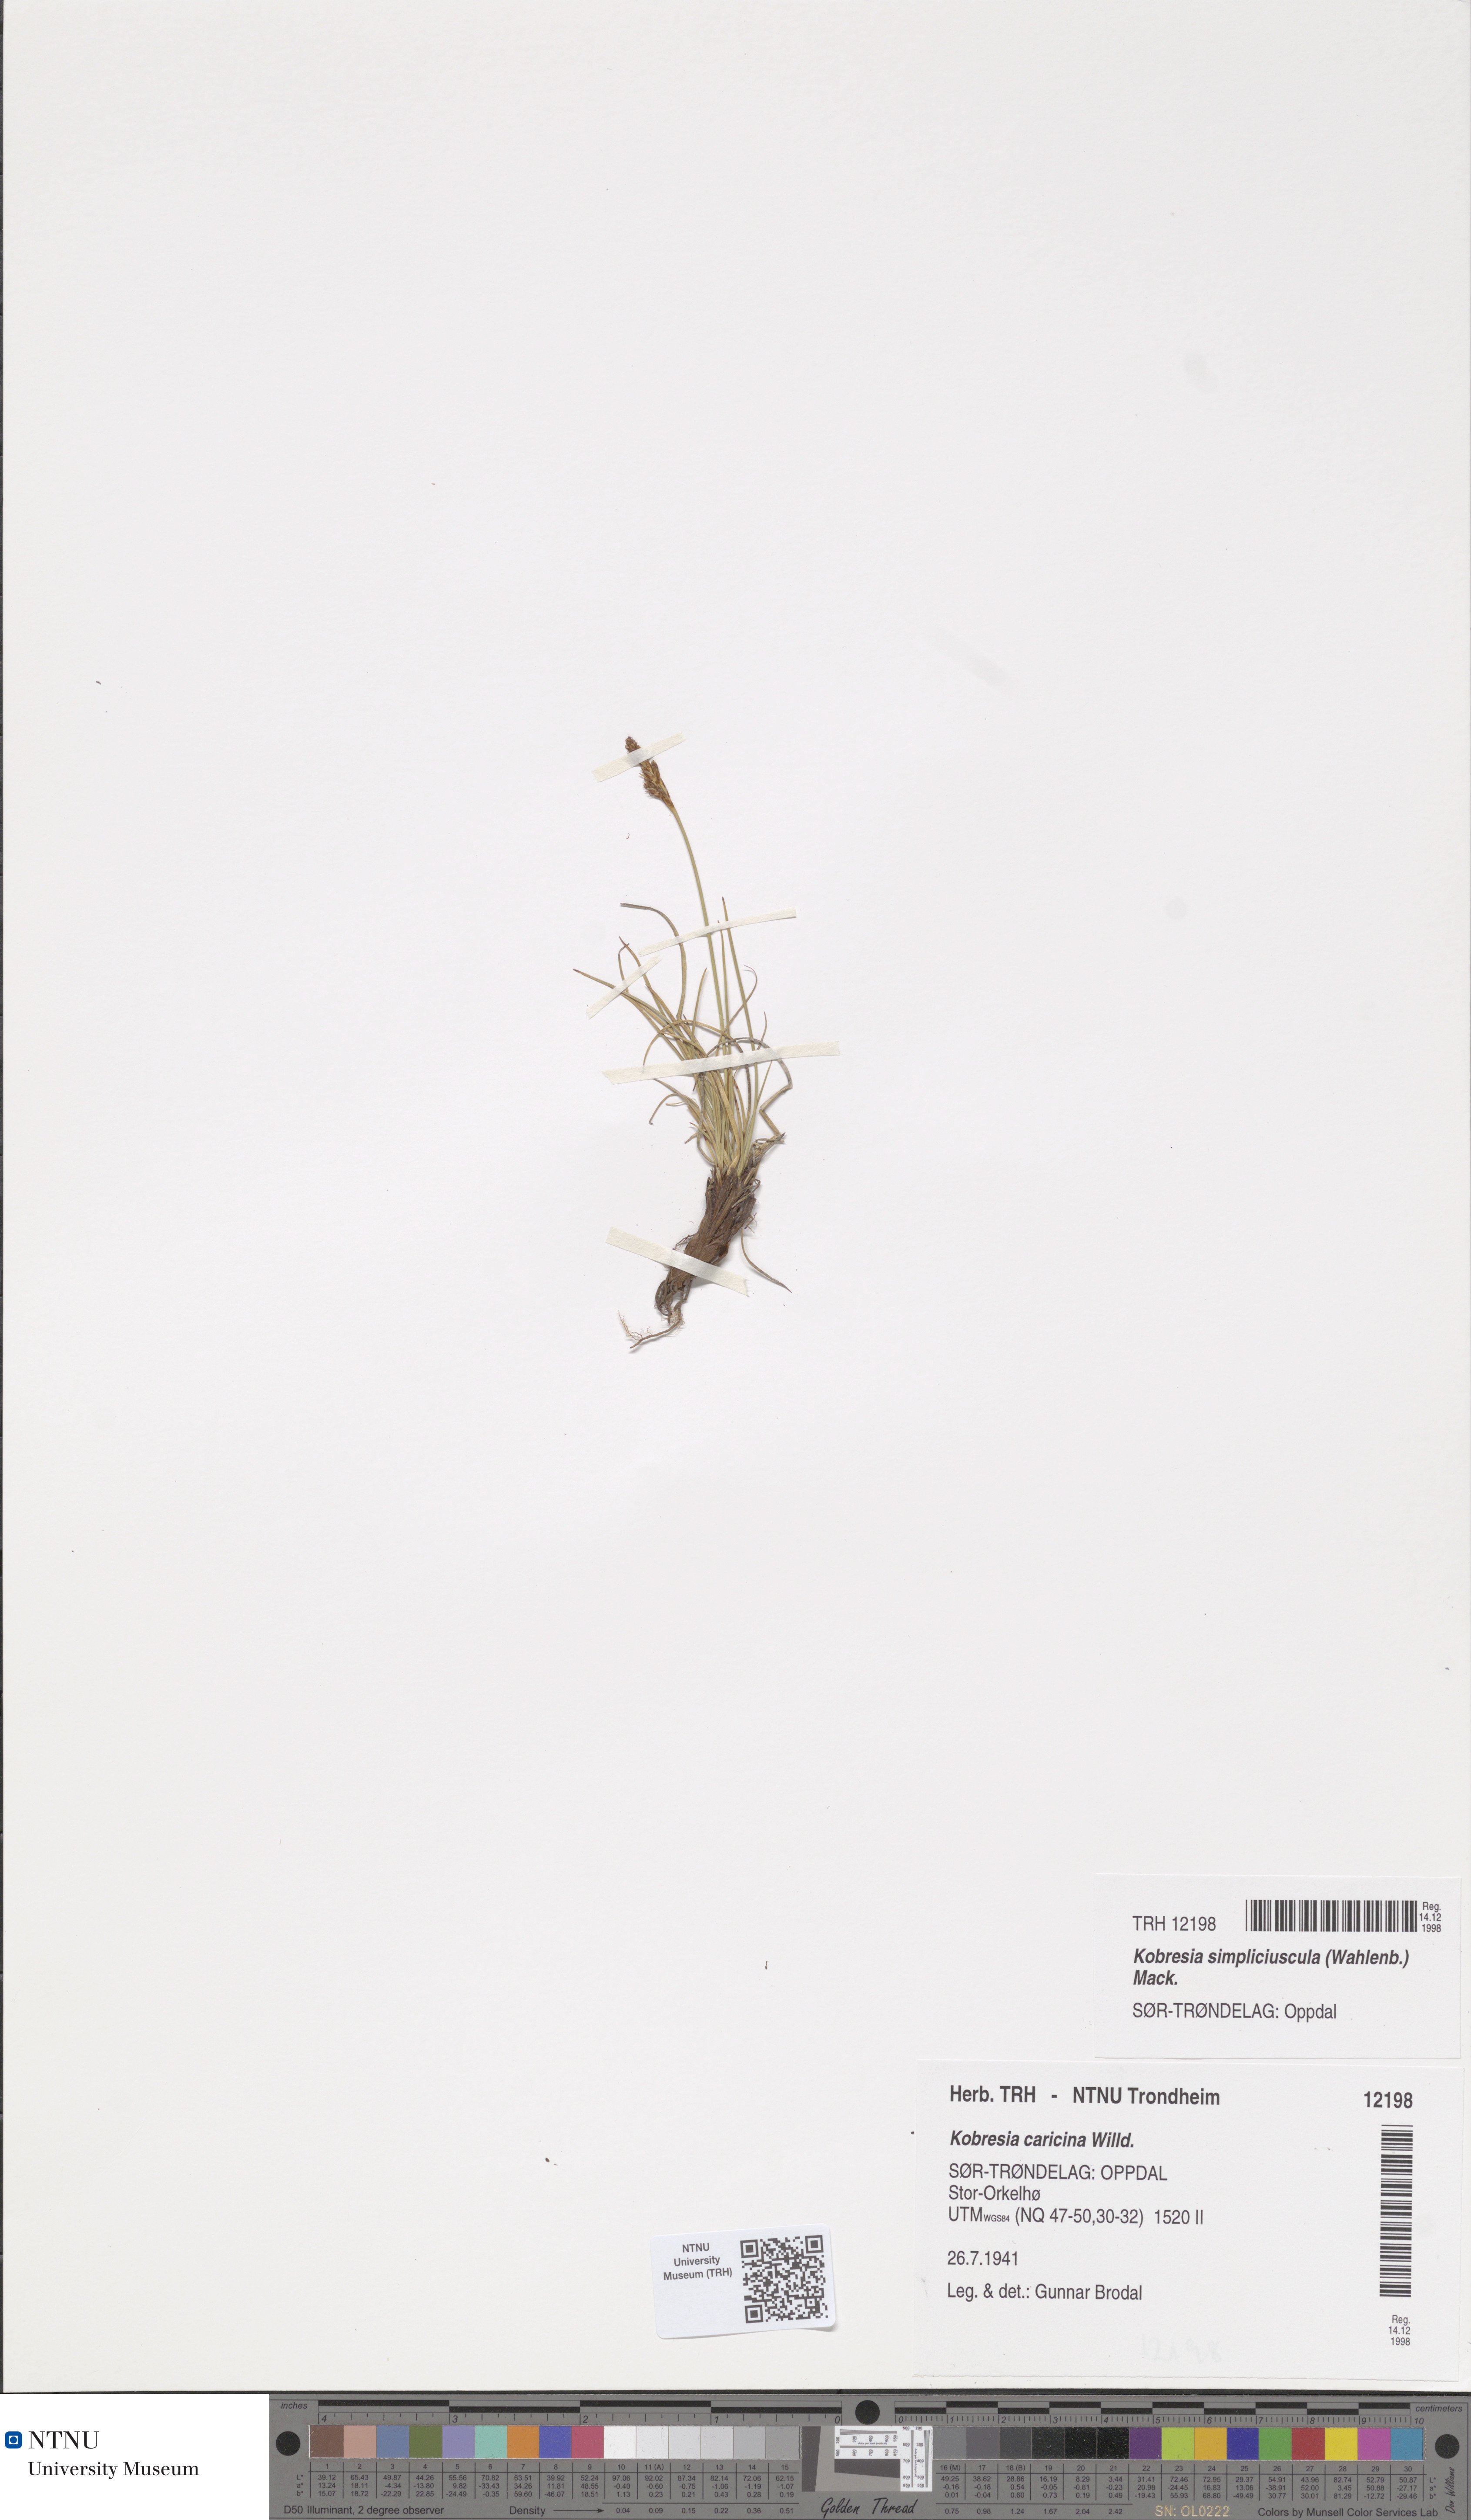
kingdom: Plantae
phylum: Tracheophyta
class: Liliopsida
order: Poales
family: Cyperaceae
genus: Carex
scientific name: Carex simpliciuscula
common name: Simple bog sedge
